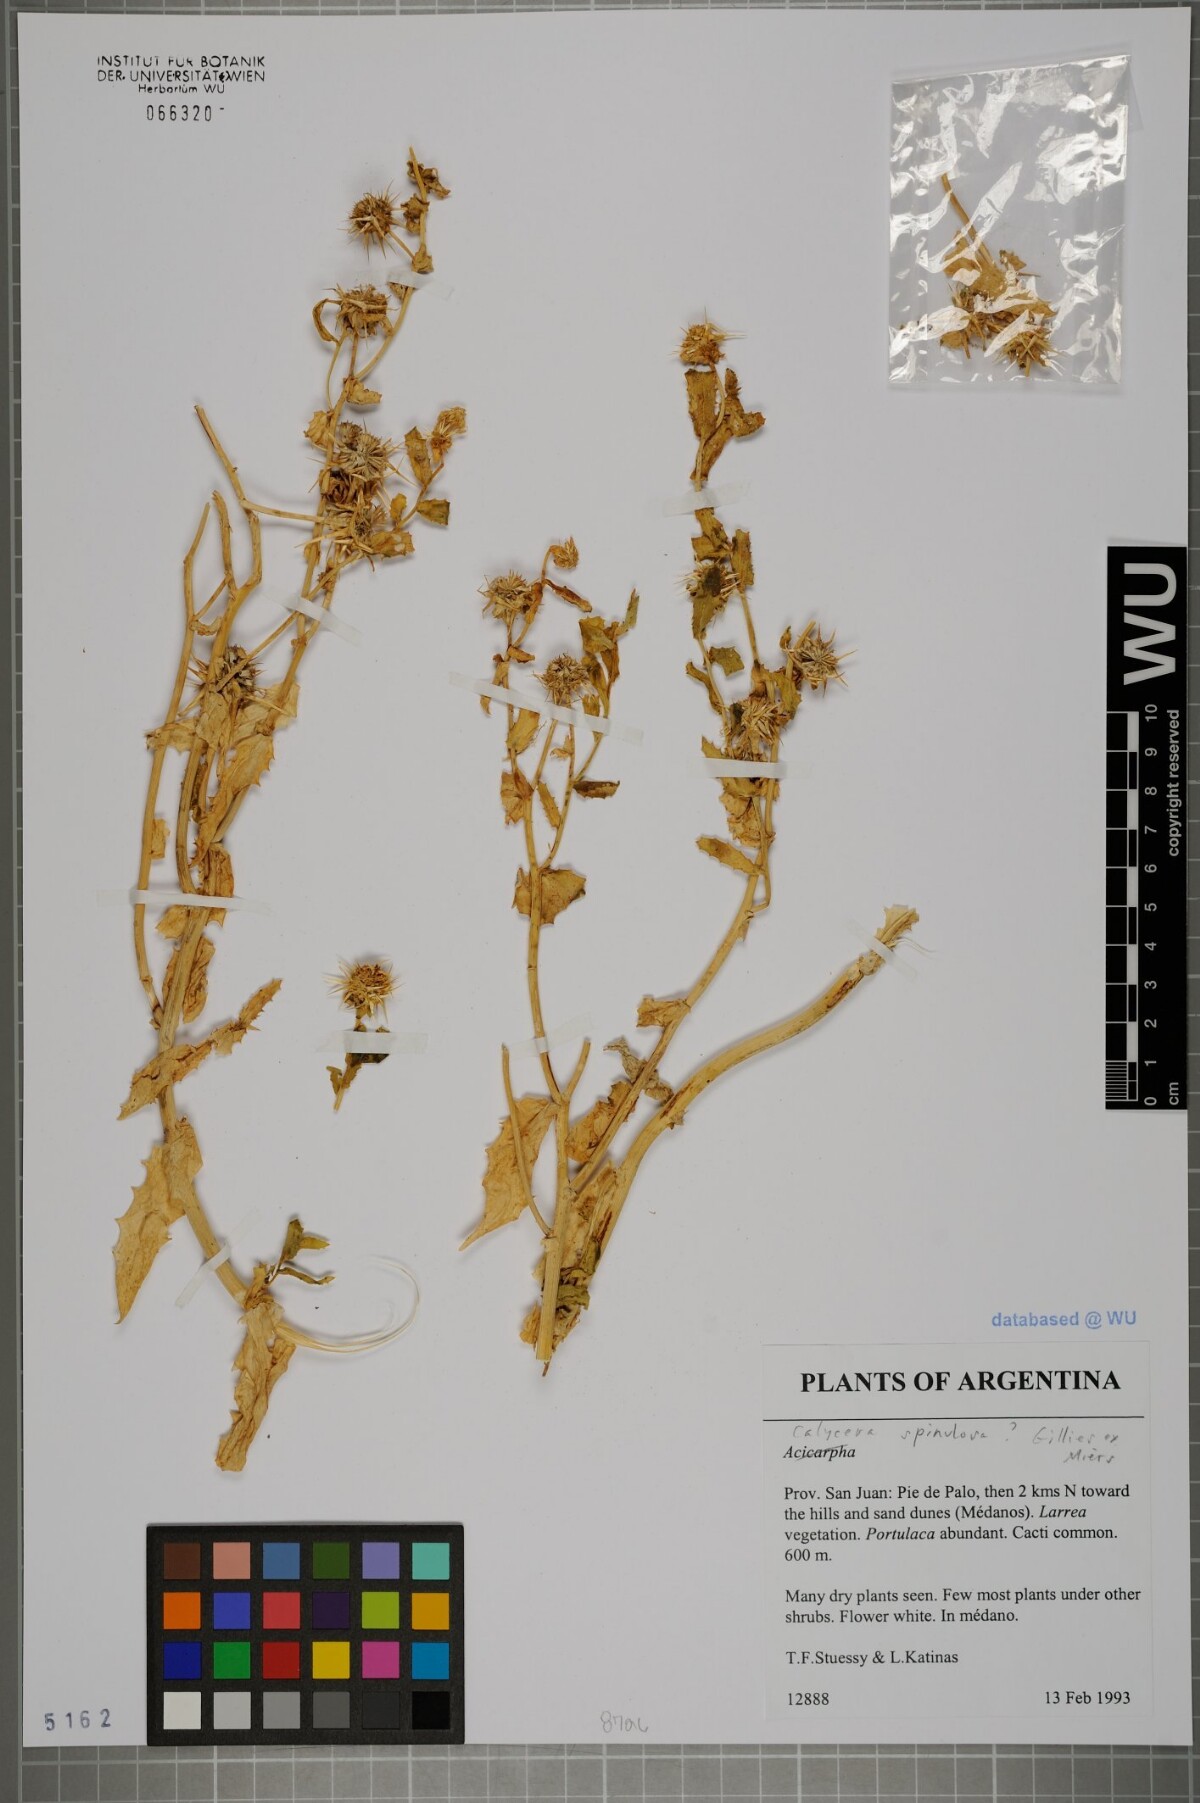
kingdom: Plantae
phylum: Tracheophyta
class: Magnoliopsida
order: Asterales
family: Calyceraceae
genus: Acicarpha
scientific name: Acicarpha tribuloides
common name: Madam gorgon
